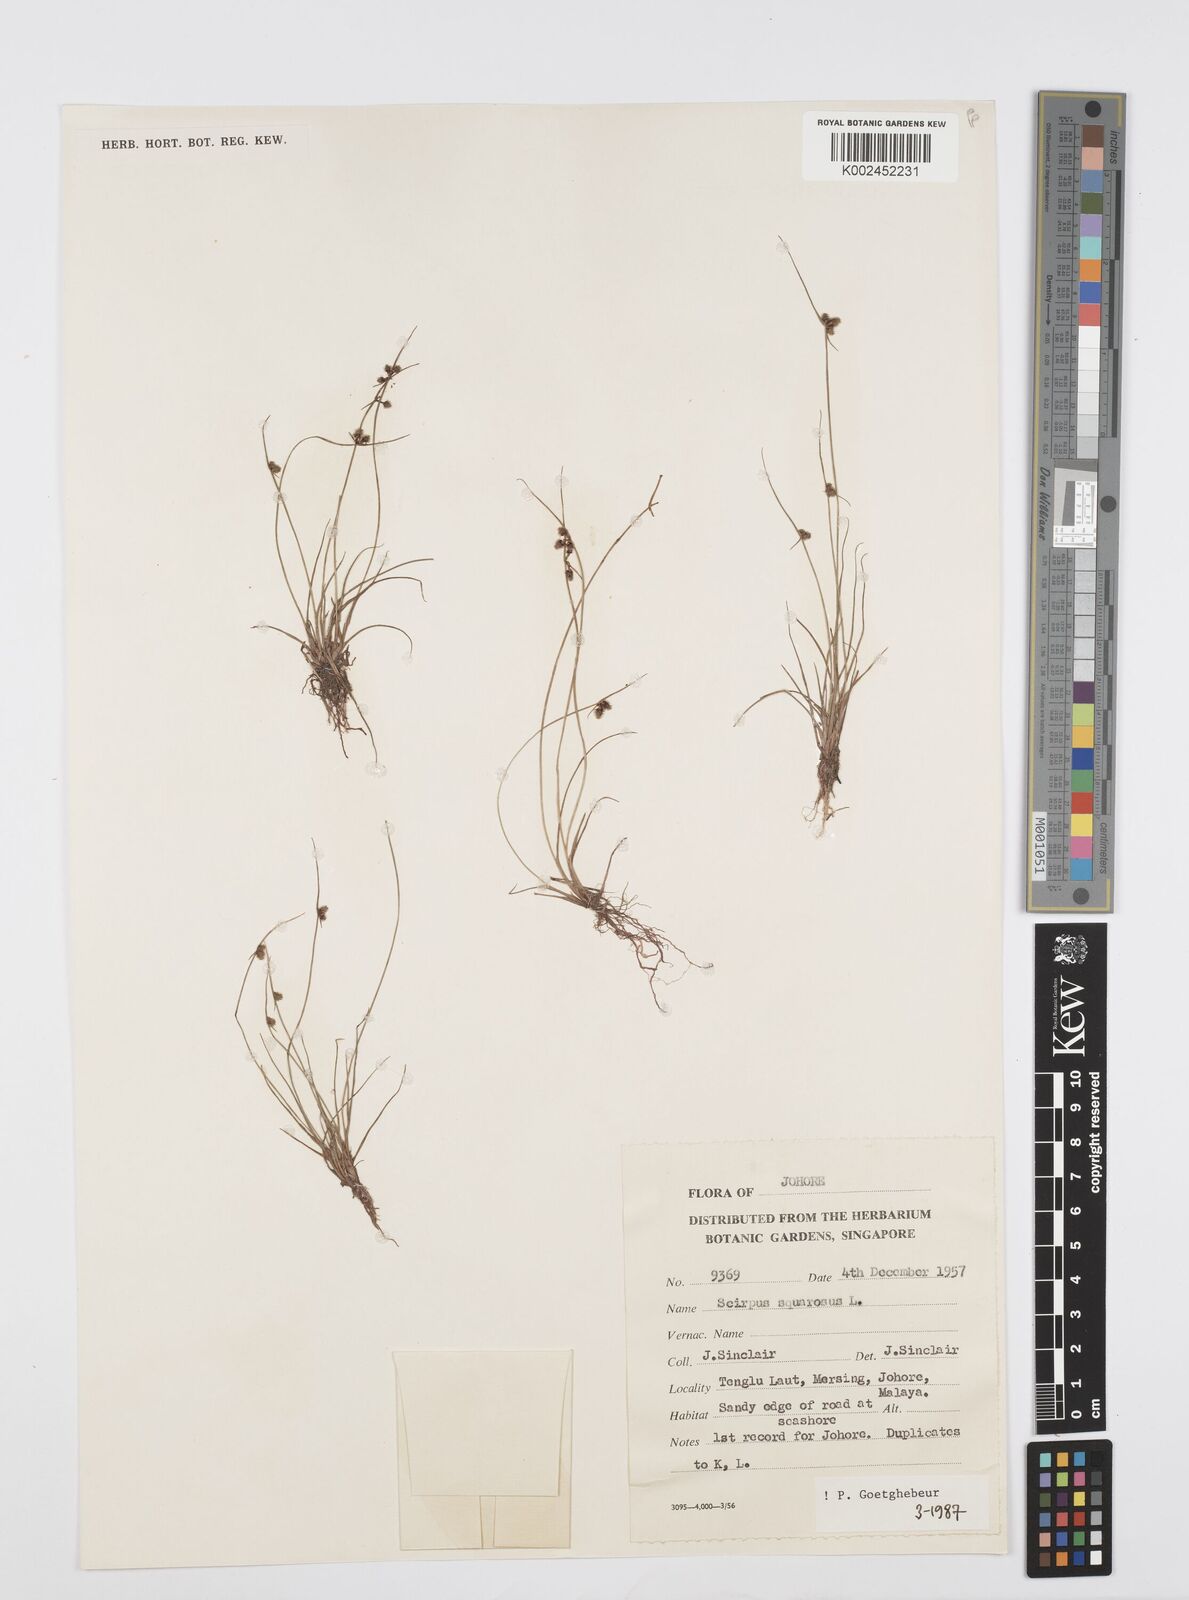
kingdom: Plantae
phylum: Tracheophyta
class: Liliopsida
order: Poales
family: Cyperaceae
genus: Cyperus
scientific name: Cyperus squarrosus
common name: Awned cyperus
